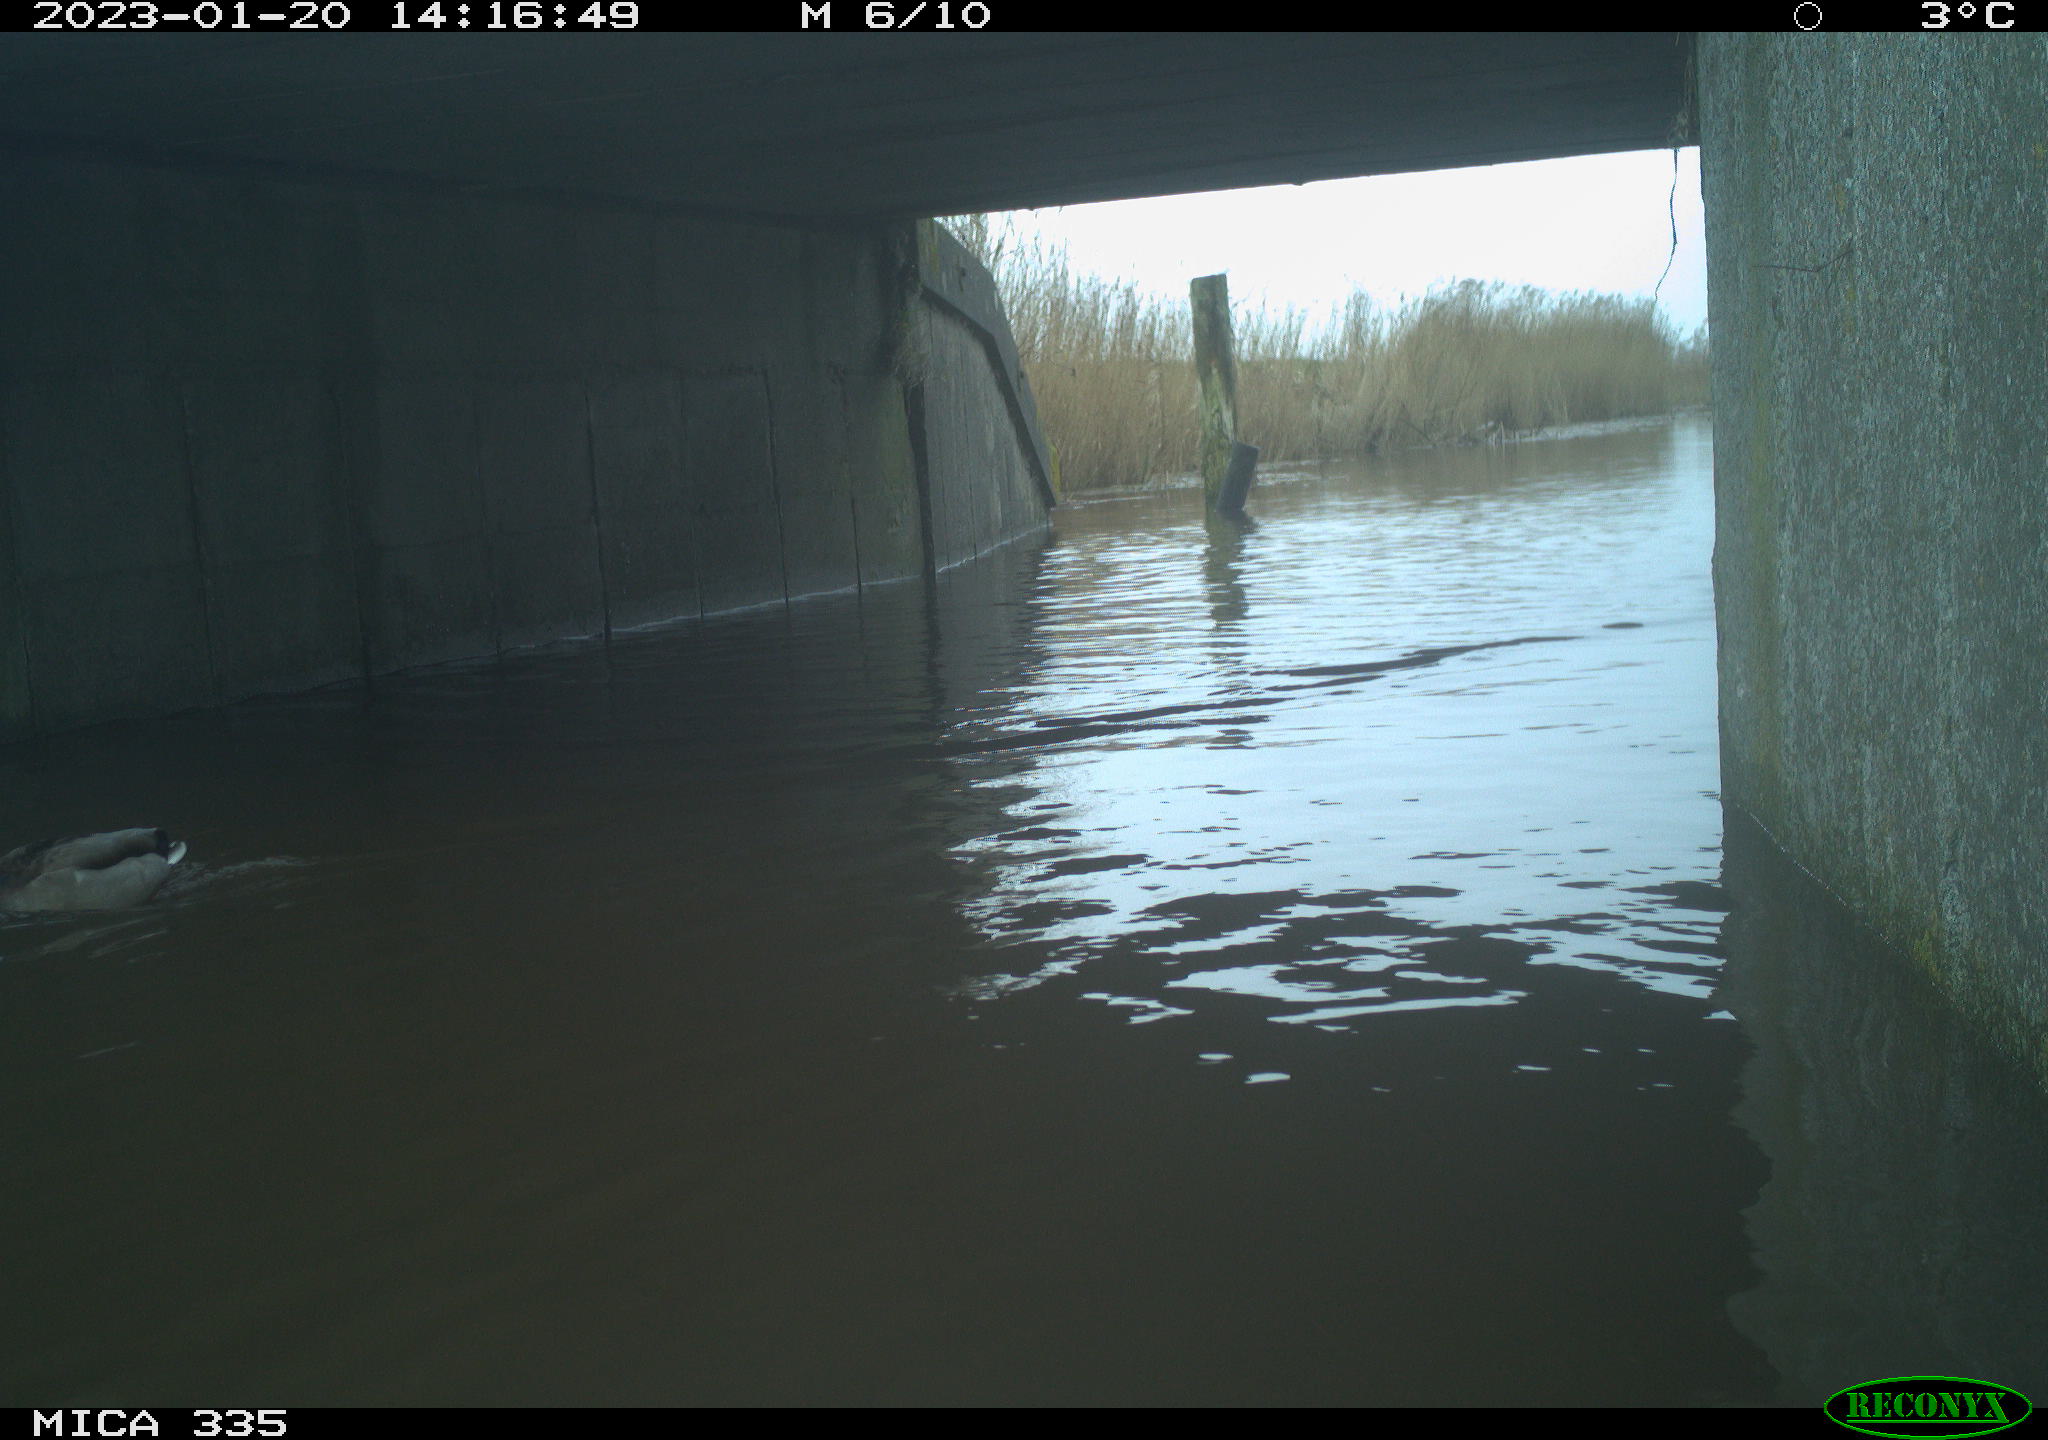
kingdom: Animalia
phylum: Chordata
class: Aves
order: Anseriformes
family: Anatidae
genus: Anas
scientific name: Anas
